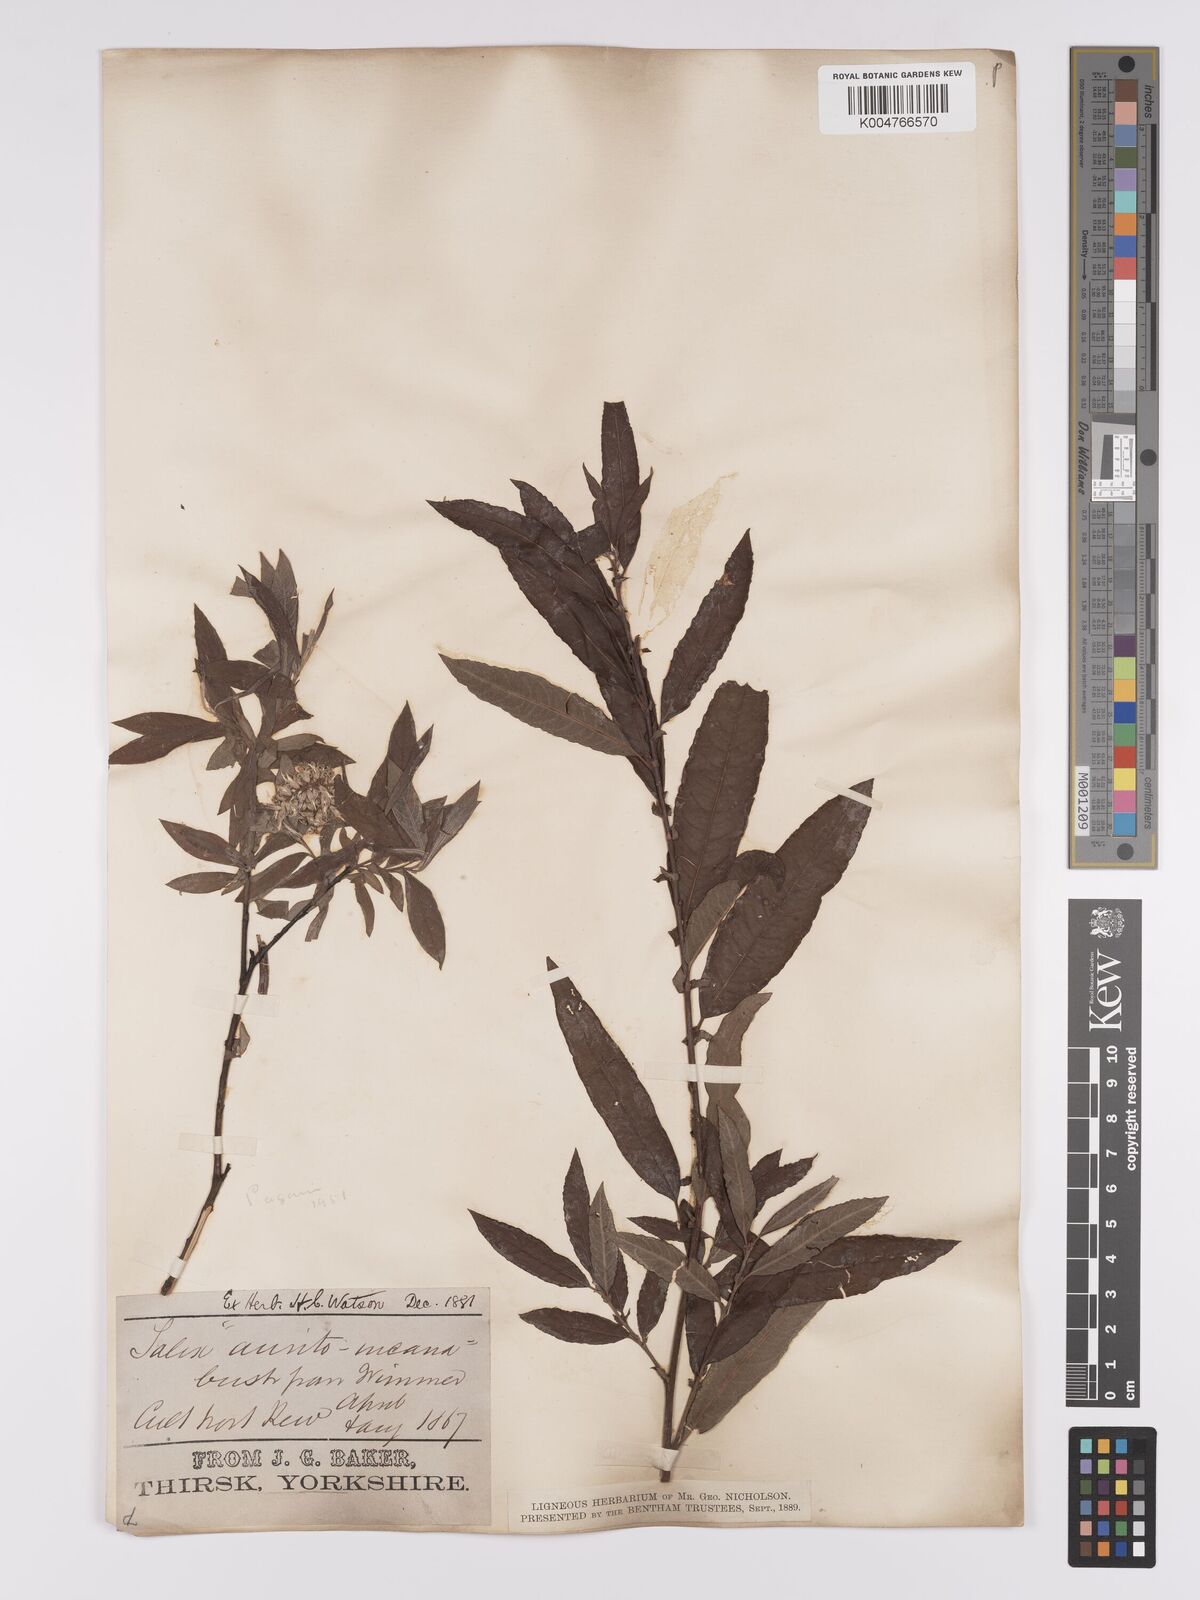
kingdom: Plantae
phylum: Tracheophyta
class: Magnoliopsida
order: Malpighiales
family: Salicaceae
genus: Salix
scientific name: Salix
